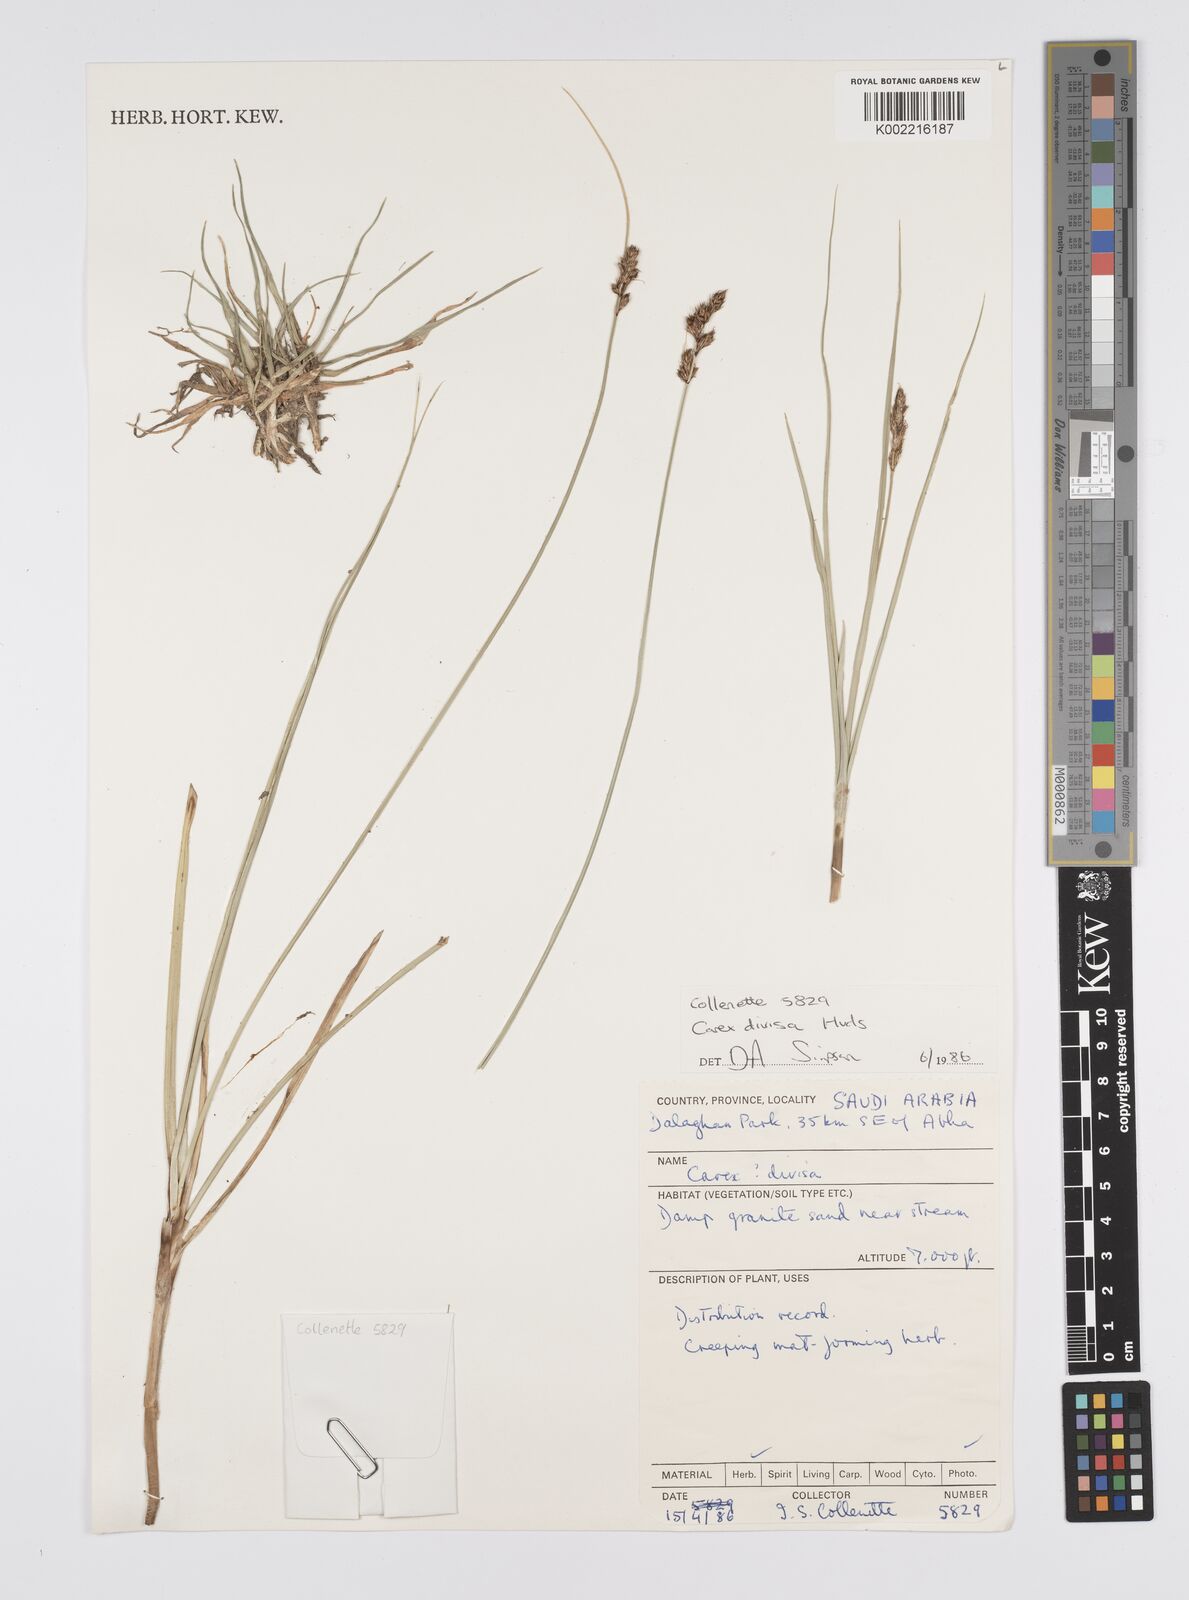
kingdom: Plantae
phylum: Tracheophyta
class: Liliopsida
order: Poales
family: Cyperaceae
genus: Carex
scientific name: Carex divisa
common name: Divided sedge
